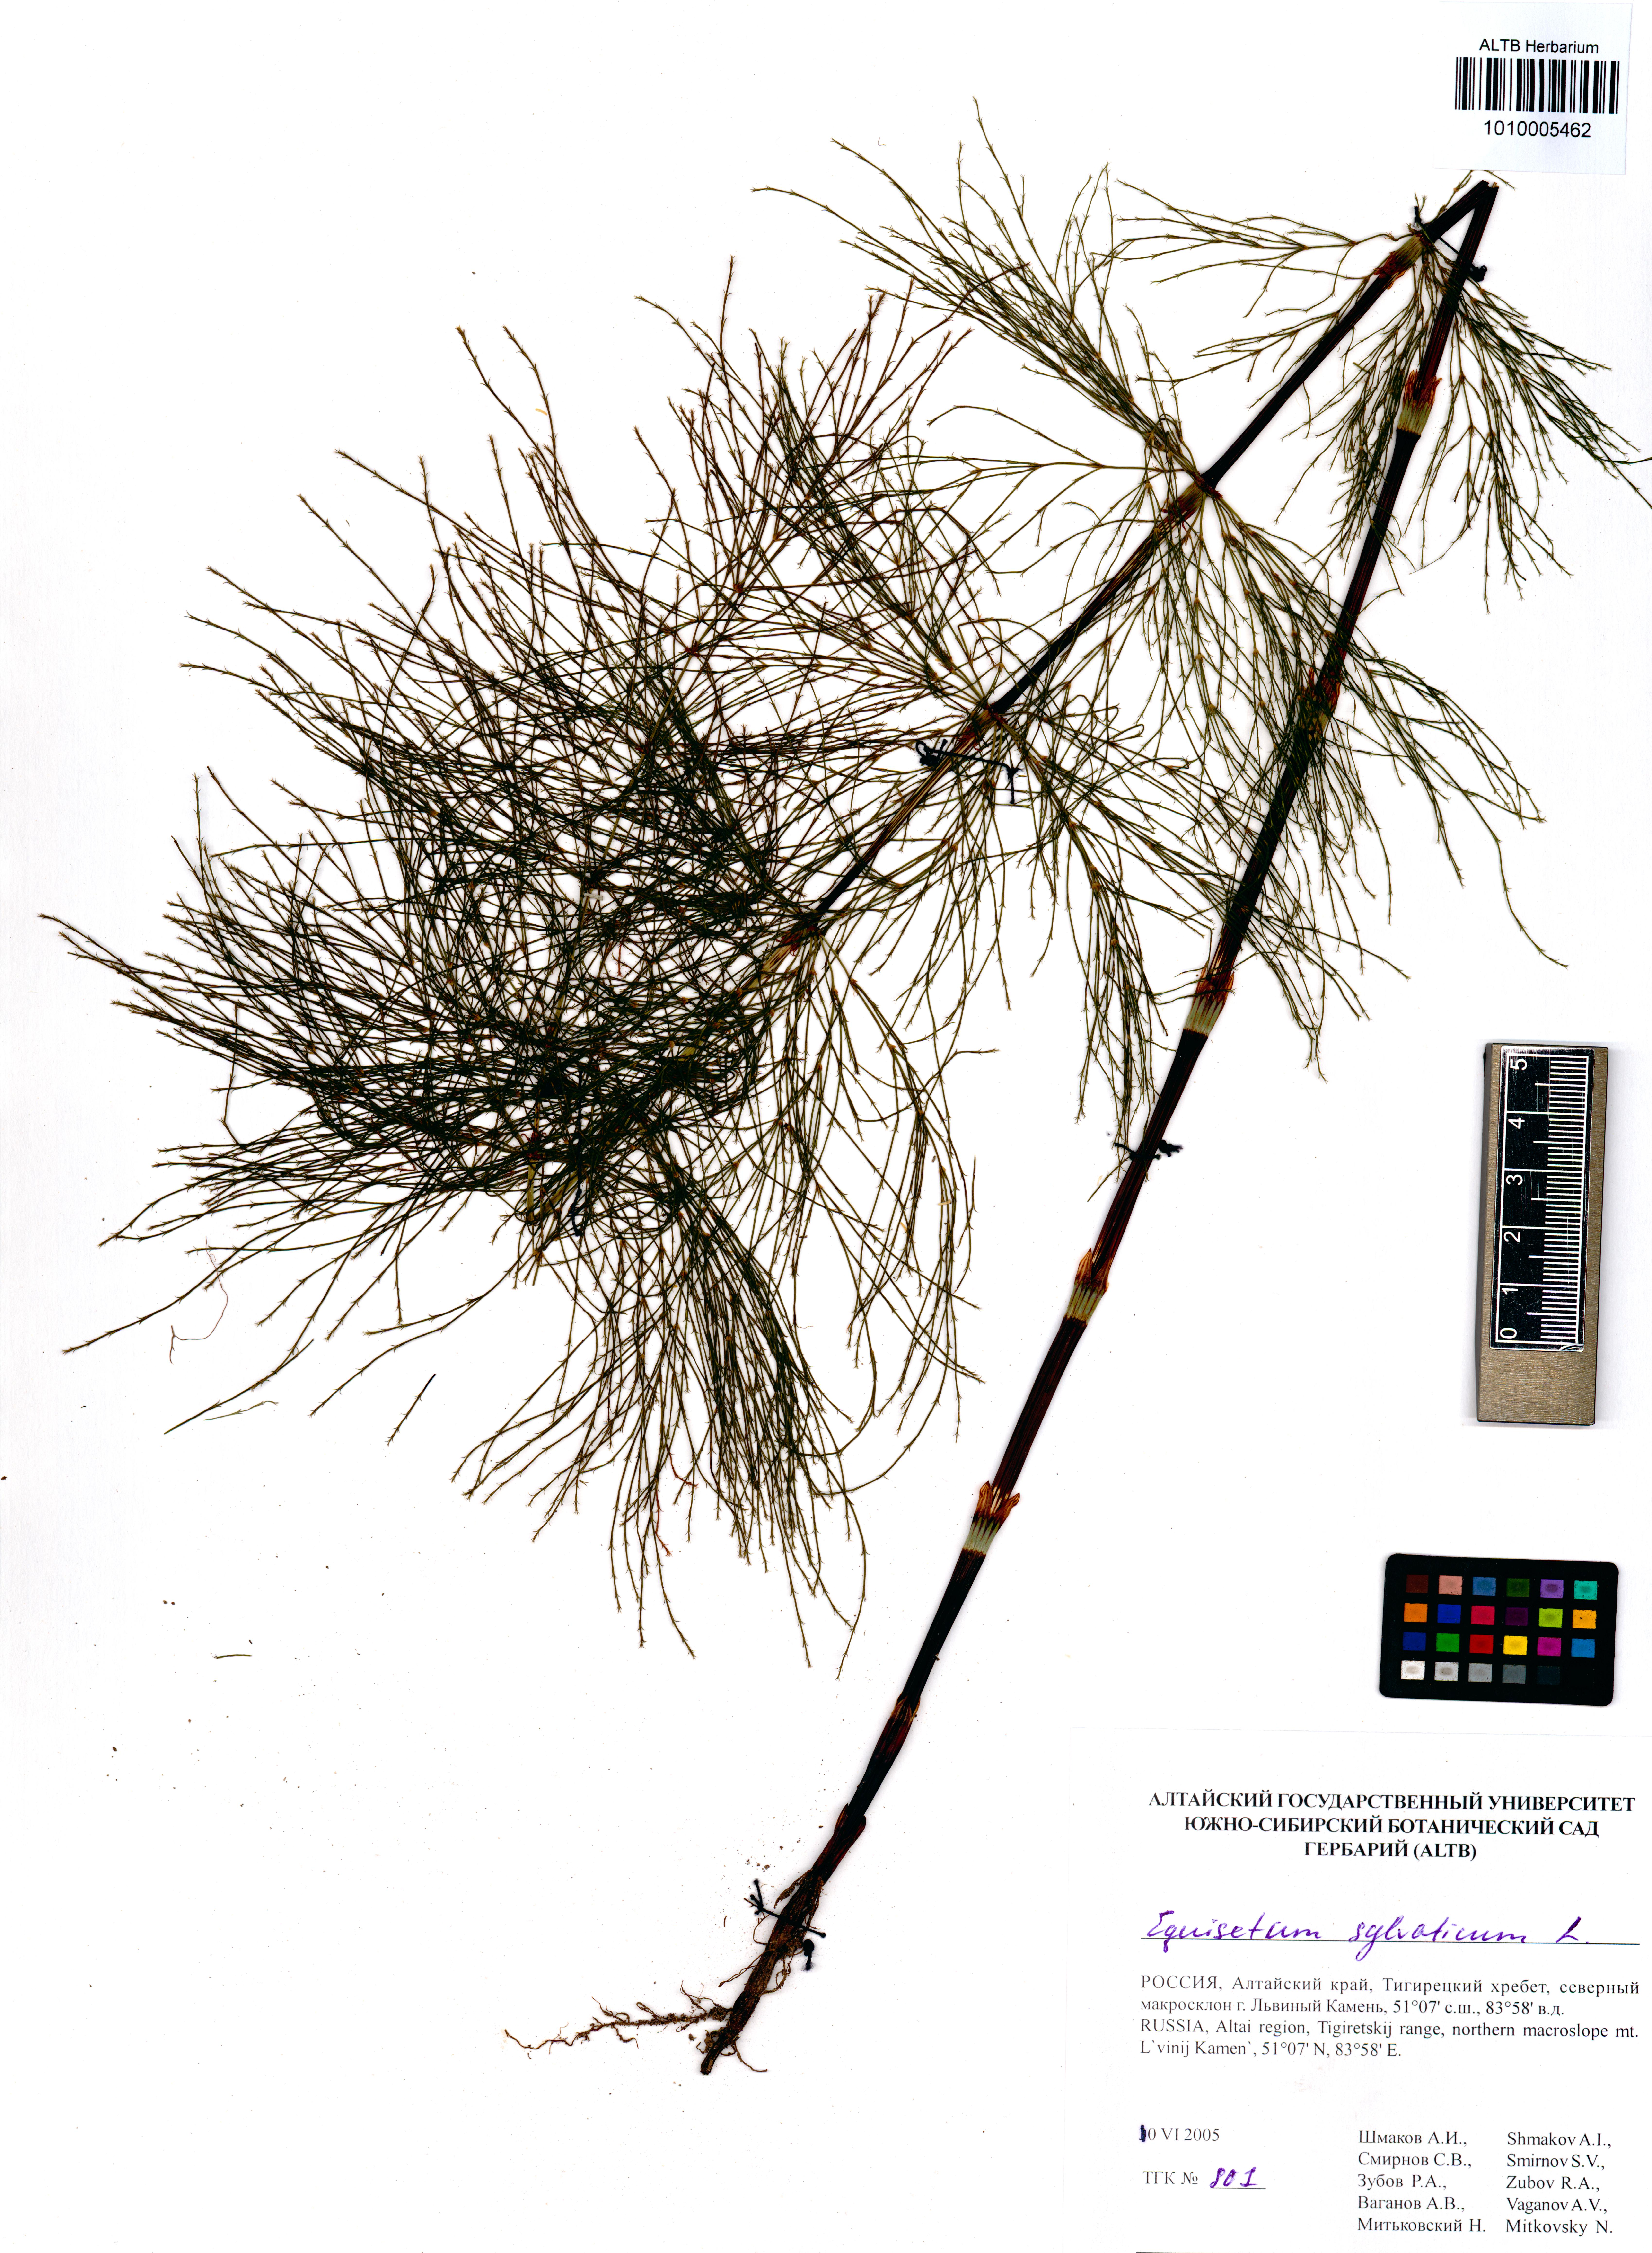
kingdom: Plantae
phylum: Tracheophyta
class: Polypodiopsida
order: Equisetales
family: Equisetaceae
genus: Equisetum
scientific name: Equisetum sylvaticum
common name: Wood horsetail
